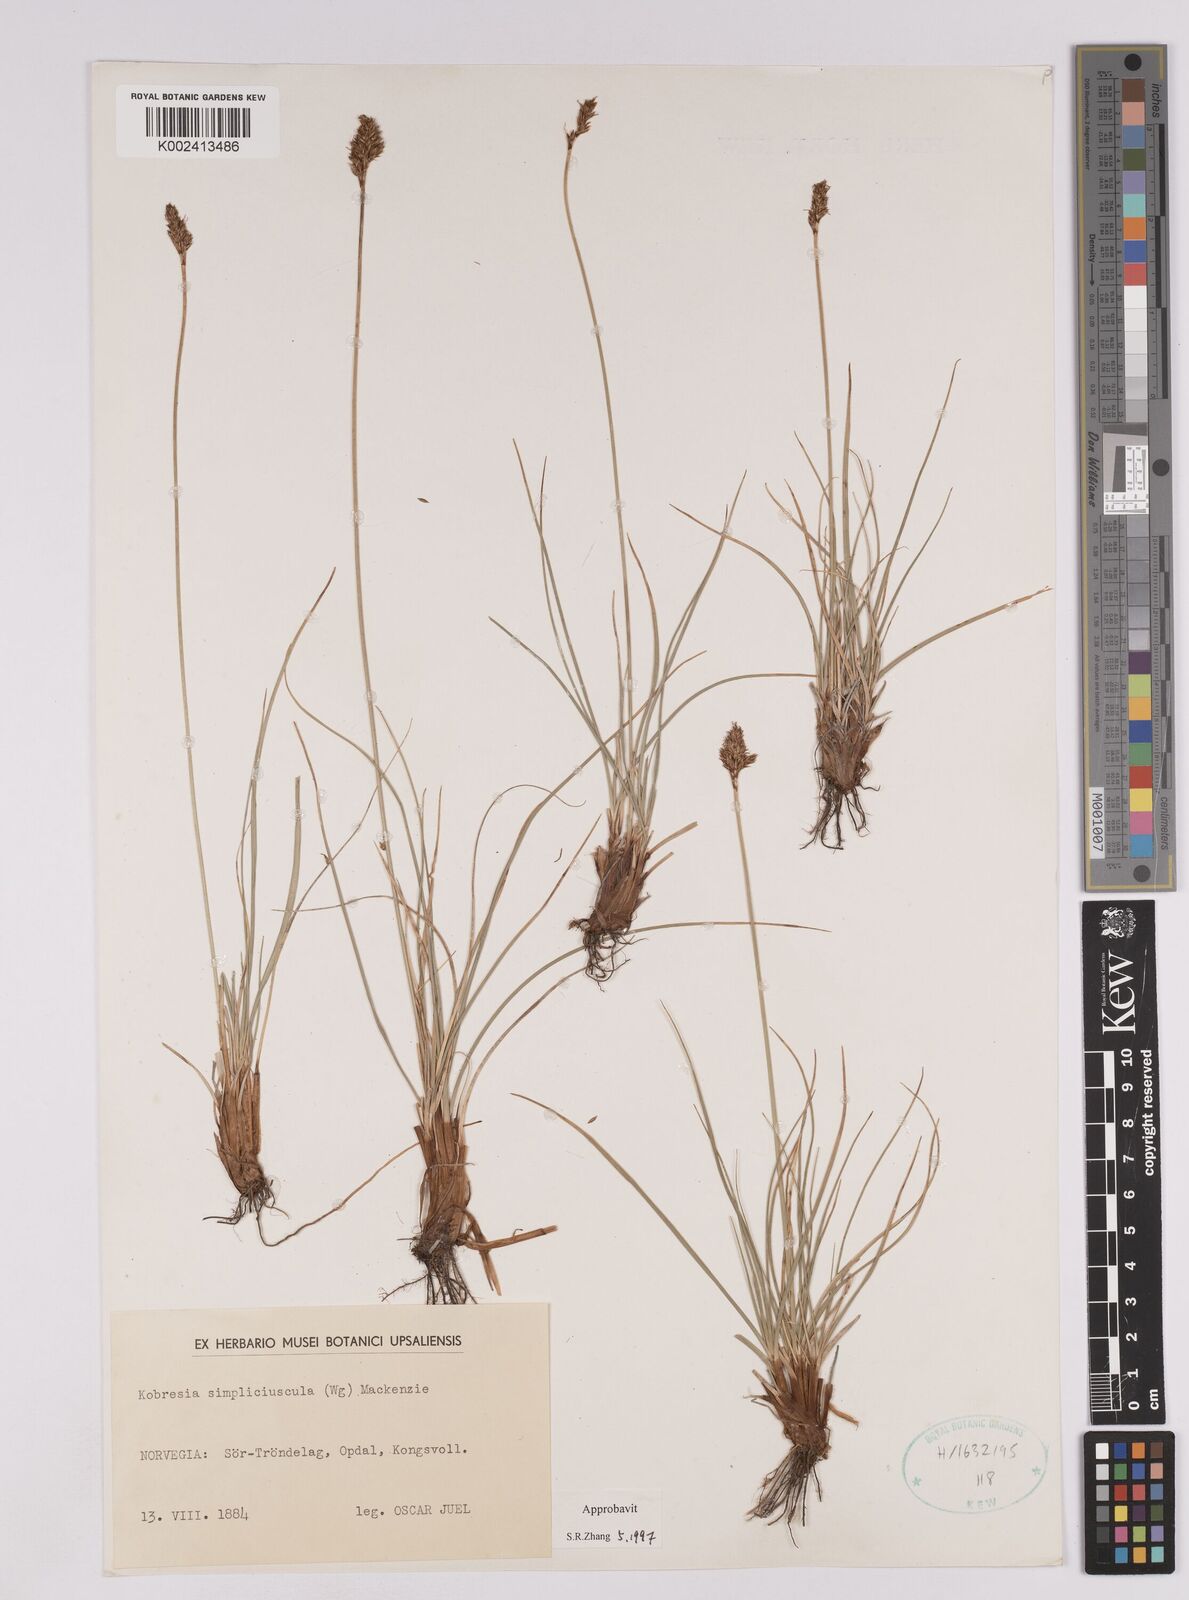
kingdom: Plantae
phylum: Tracheophyta
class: Liliopsida
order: Poales
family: Cyperaceae
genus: Carex
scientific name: Carex simpliciuscula
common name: Simple bog sedge
